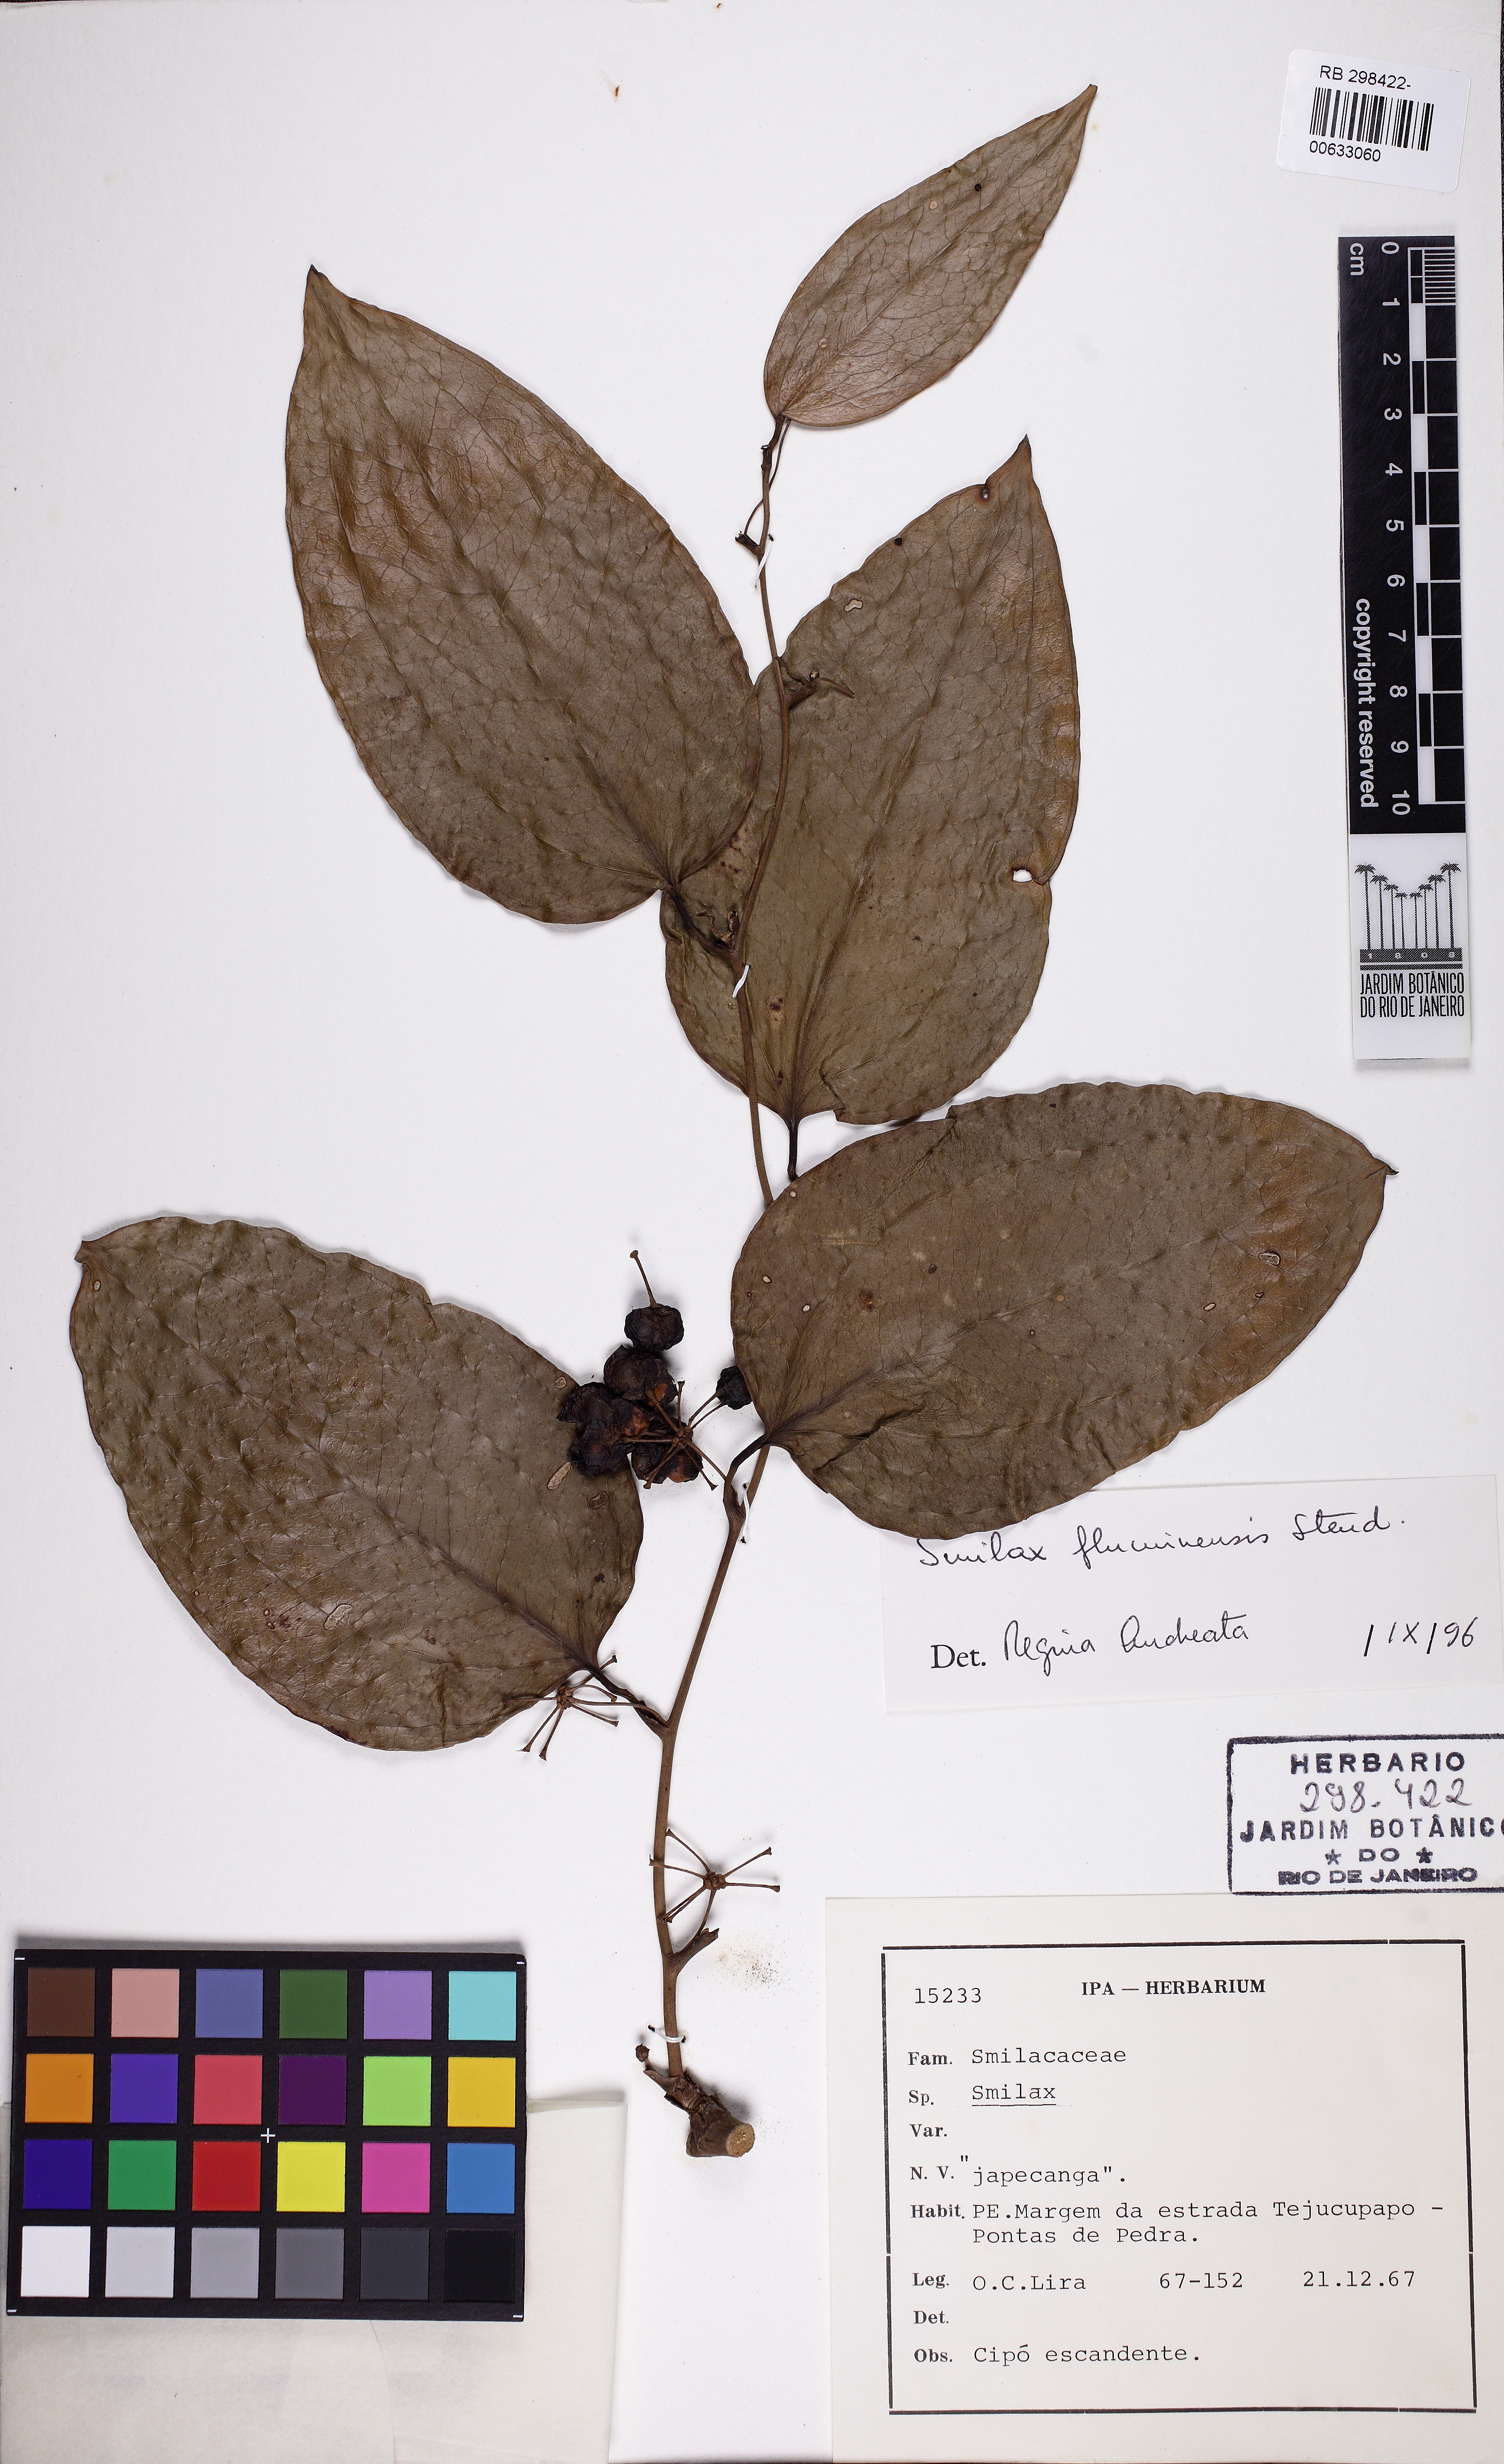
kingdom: Plantae
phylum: Tracheophyta
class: Liliopsida
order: Liliales
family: Smilacaceae
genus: Smilax
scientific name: Smilax fluminensis
